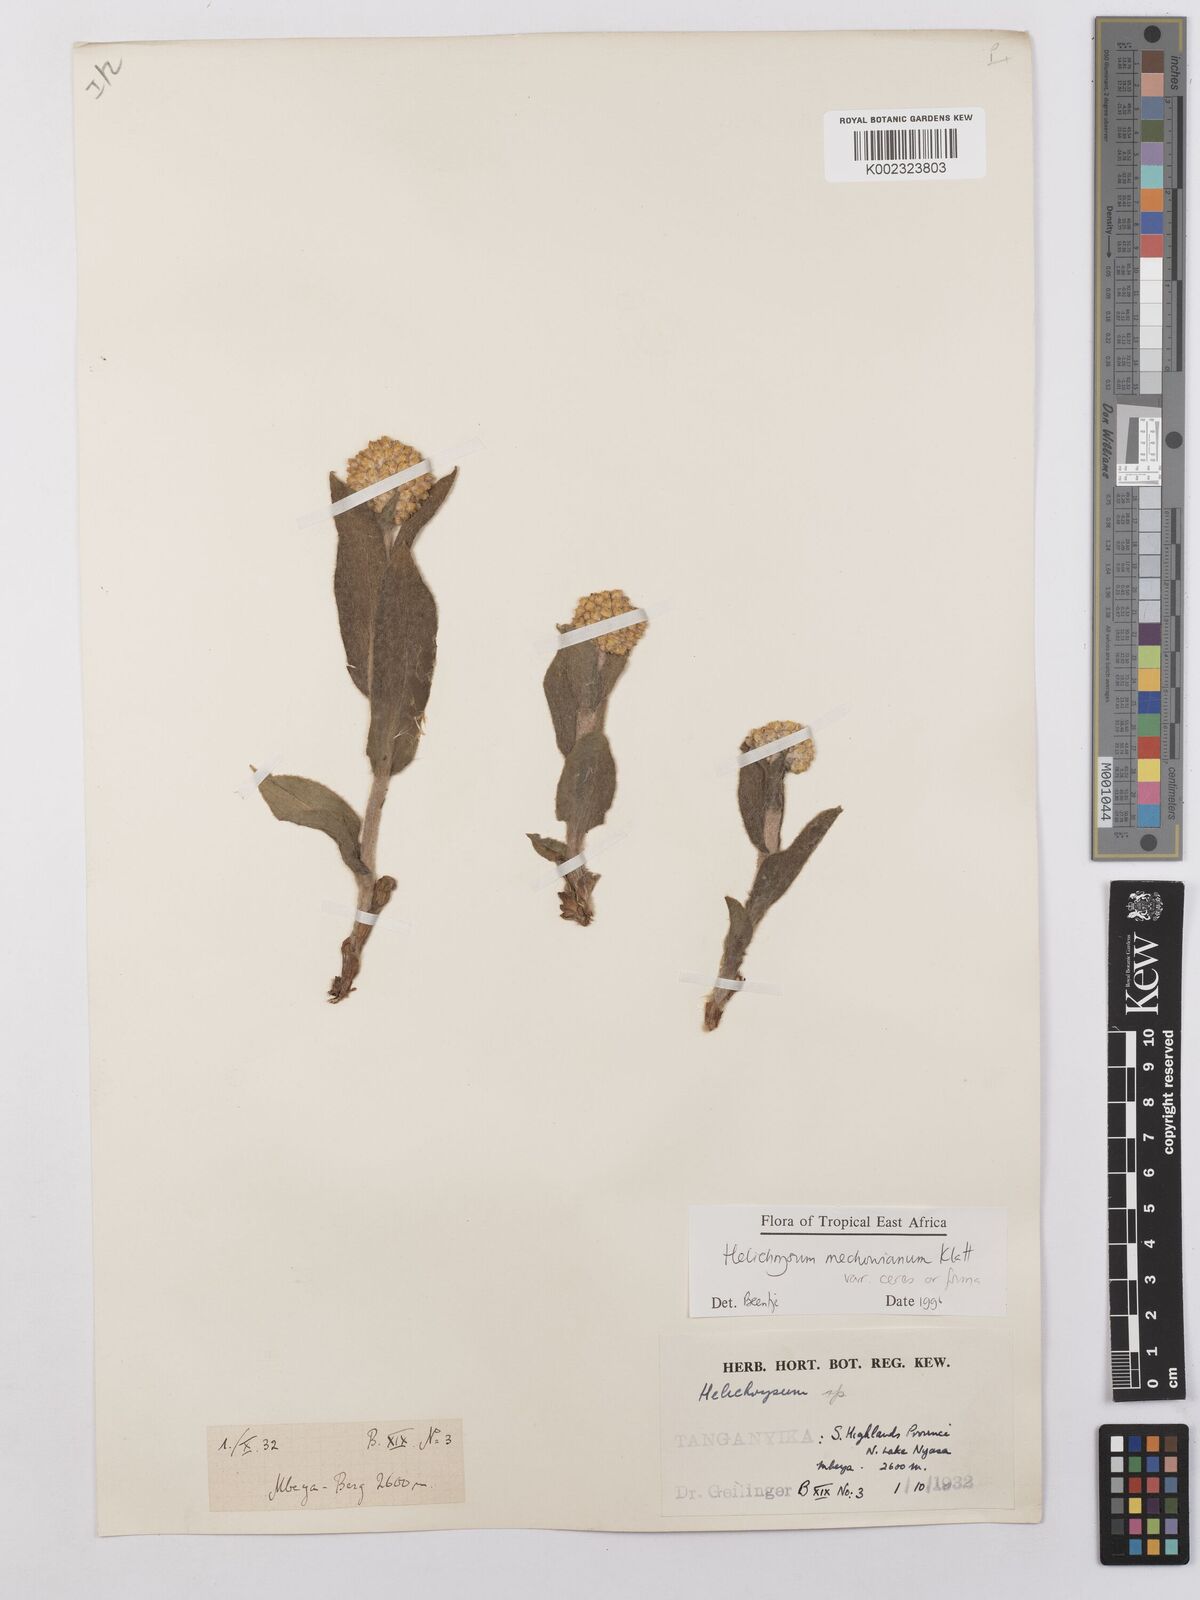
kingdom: Plantae
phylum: Tracheophyta
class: Magnoliopsida
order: Asterales
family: Asteraceae
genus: Helichrysum
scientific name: Helichrysum mechowianum
